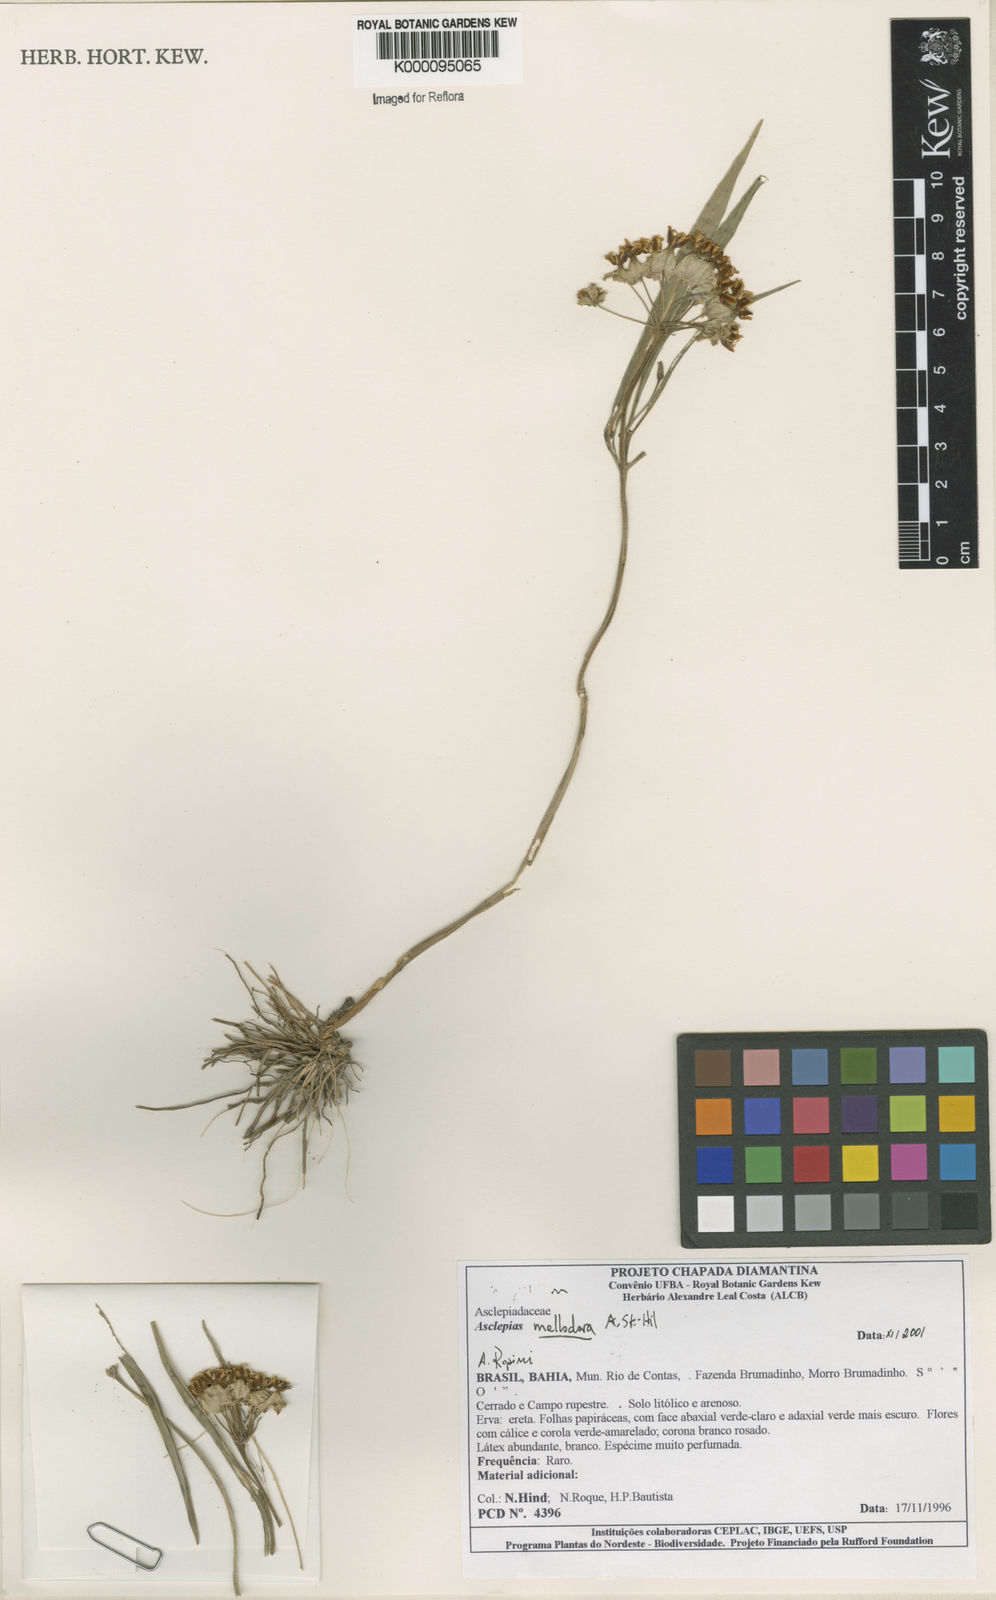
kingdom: Plantae
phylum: Tracheophyta
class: Magnoliopsida
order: Gentianales
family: Apocynaceae
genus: Asclepias
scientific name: Asclepias mellodora
